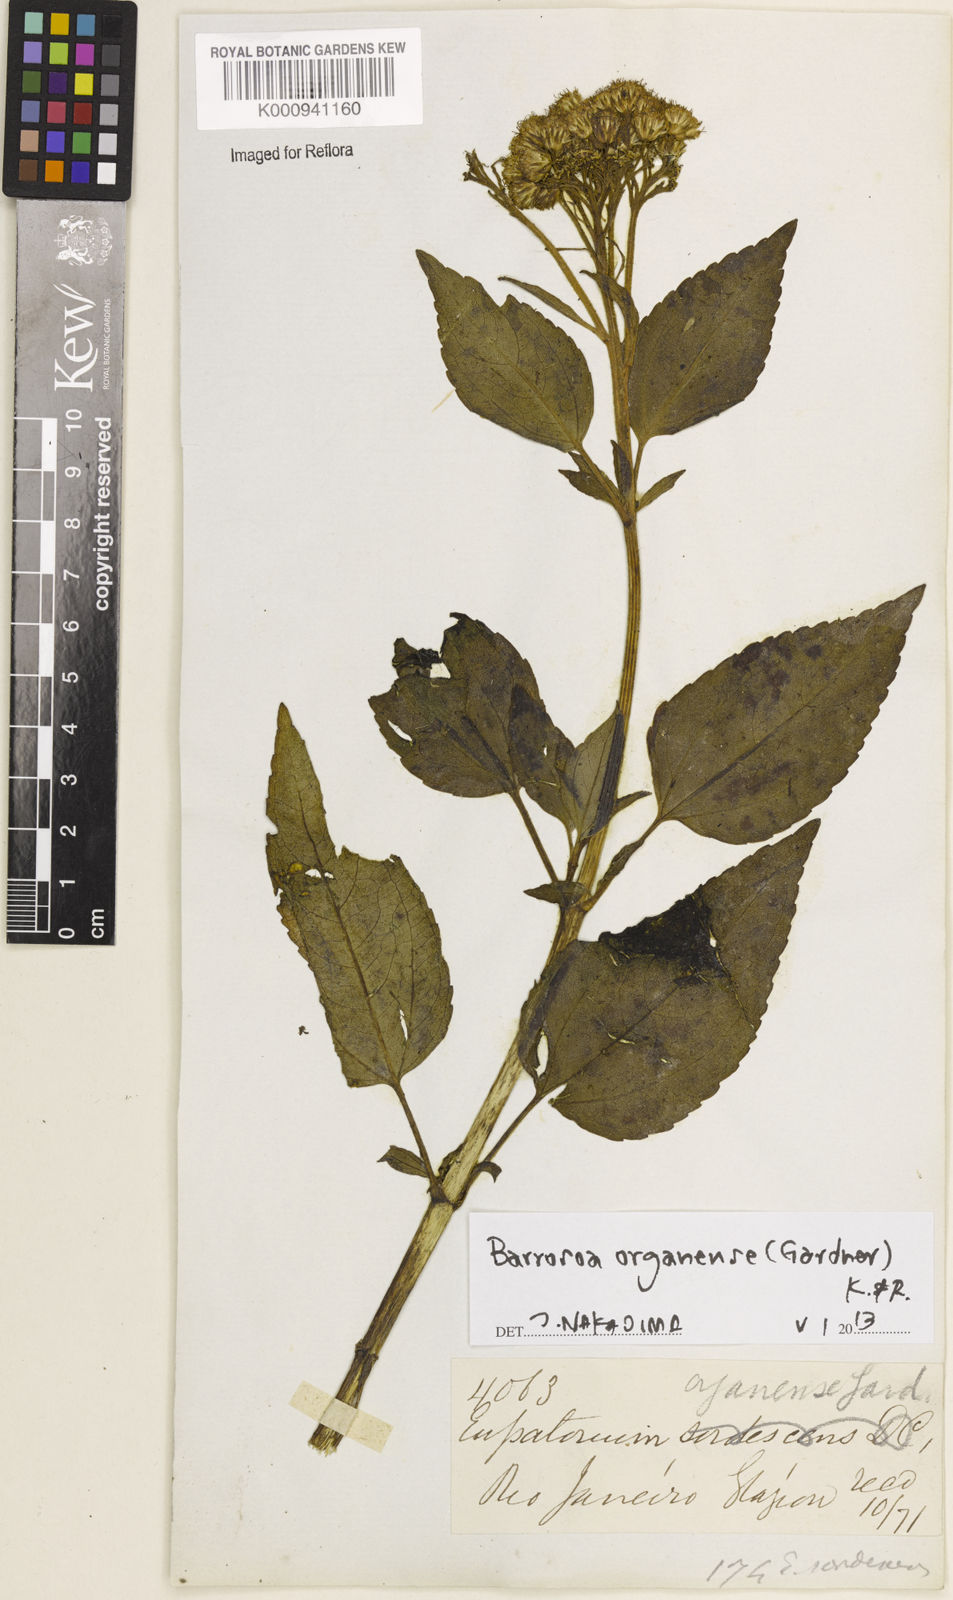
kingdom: Plantae
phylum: Tracheophyta
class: Magnoliopsida
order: Asterales
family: Asteraceae
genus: Barrosoa
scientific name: Barrosoa organensis
